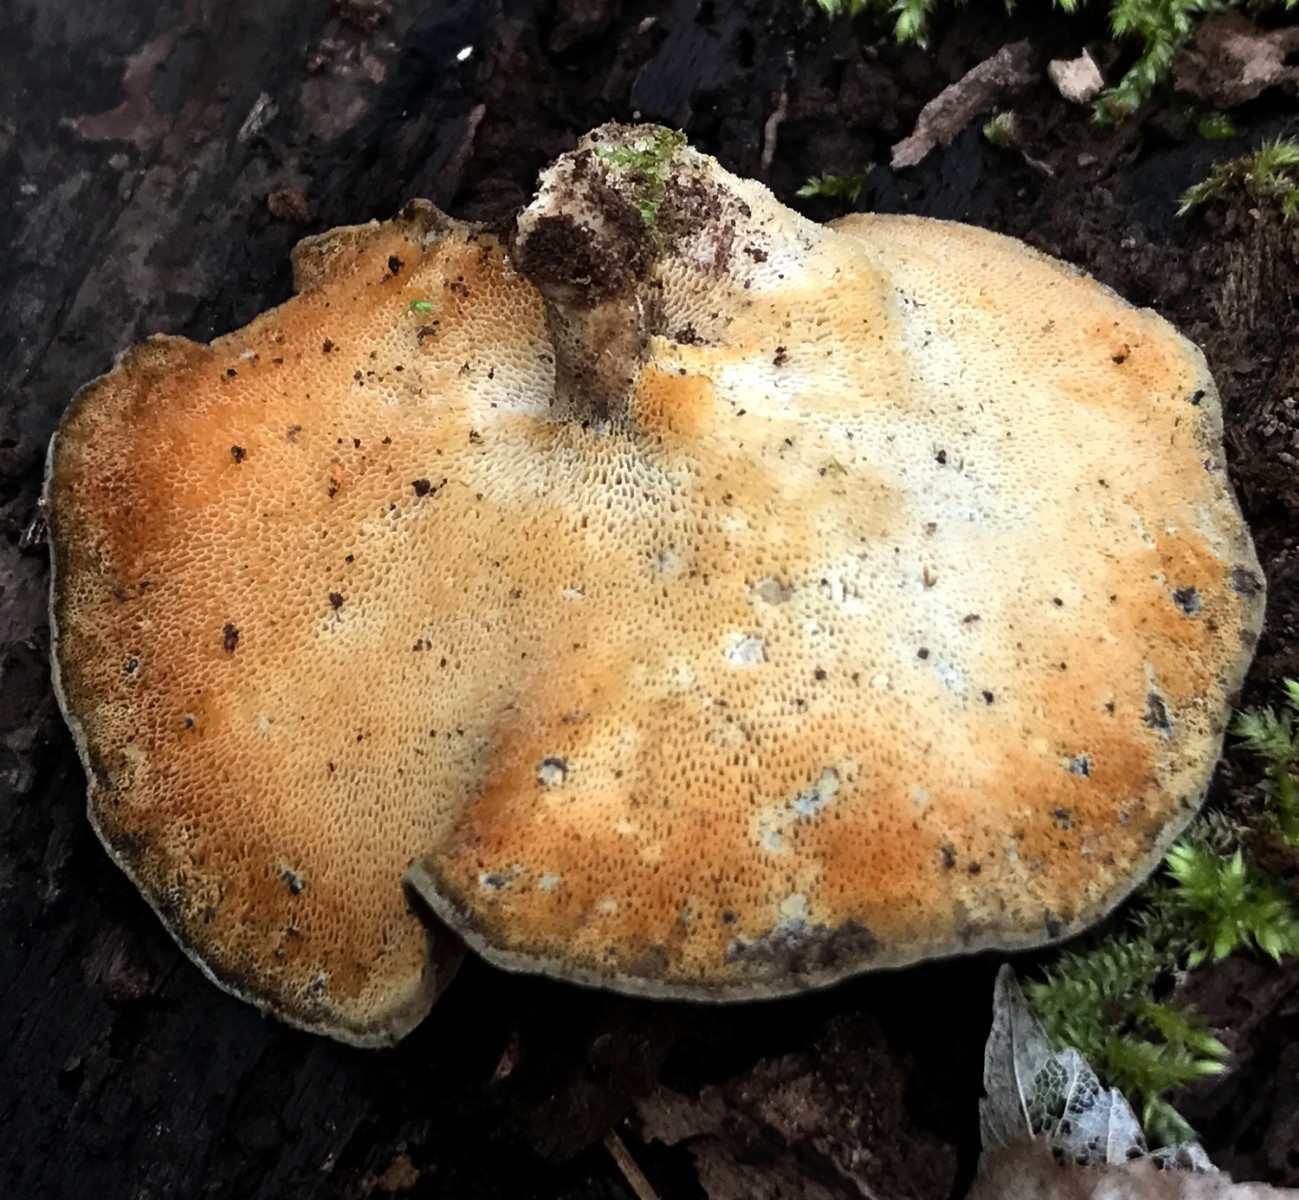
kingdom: Fungi
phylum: Basidiomycota
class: Agaricomycetes
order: Polyporales
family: Polyporaceae
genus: Lentinus
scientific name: Lentinus brumalis
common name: vinter-stilkporesvamp
